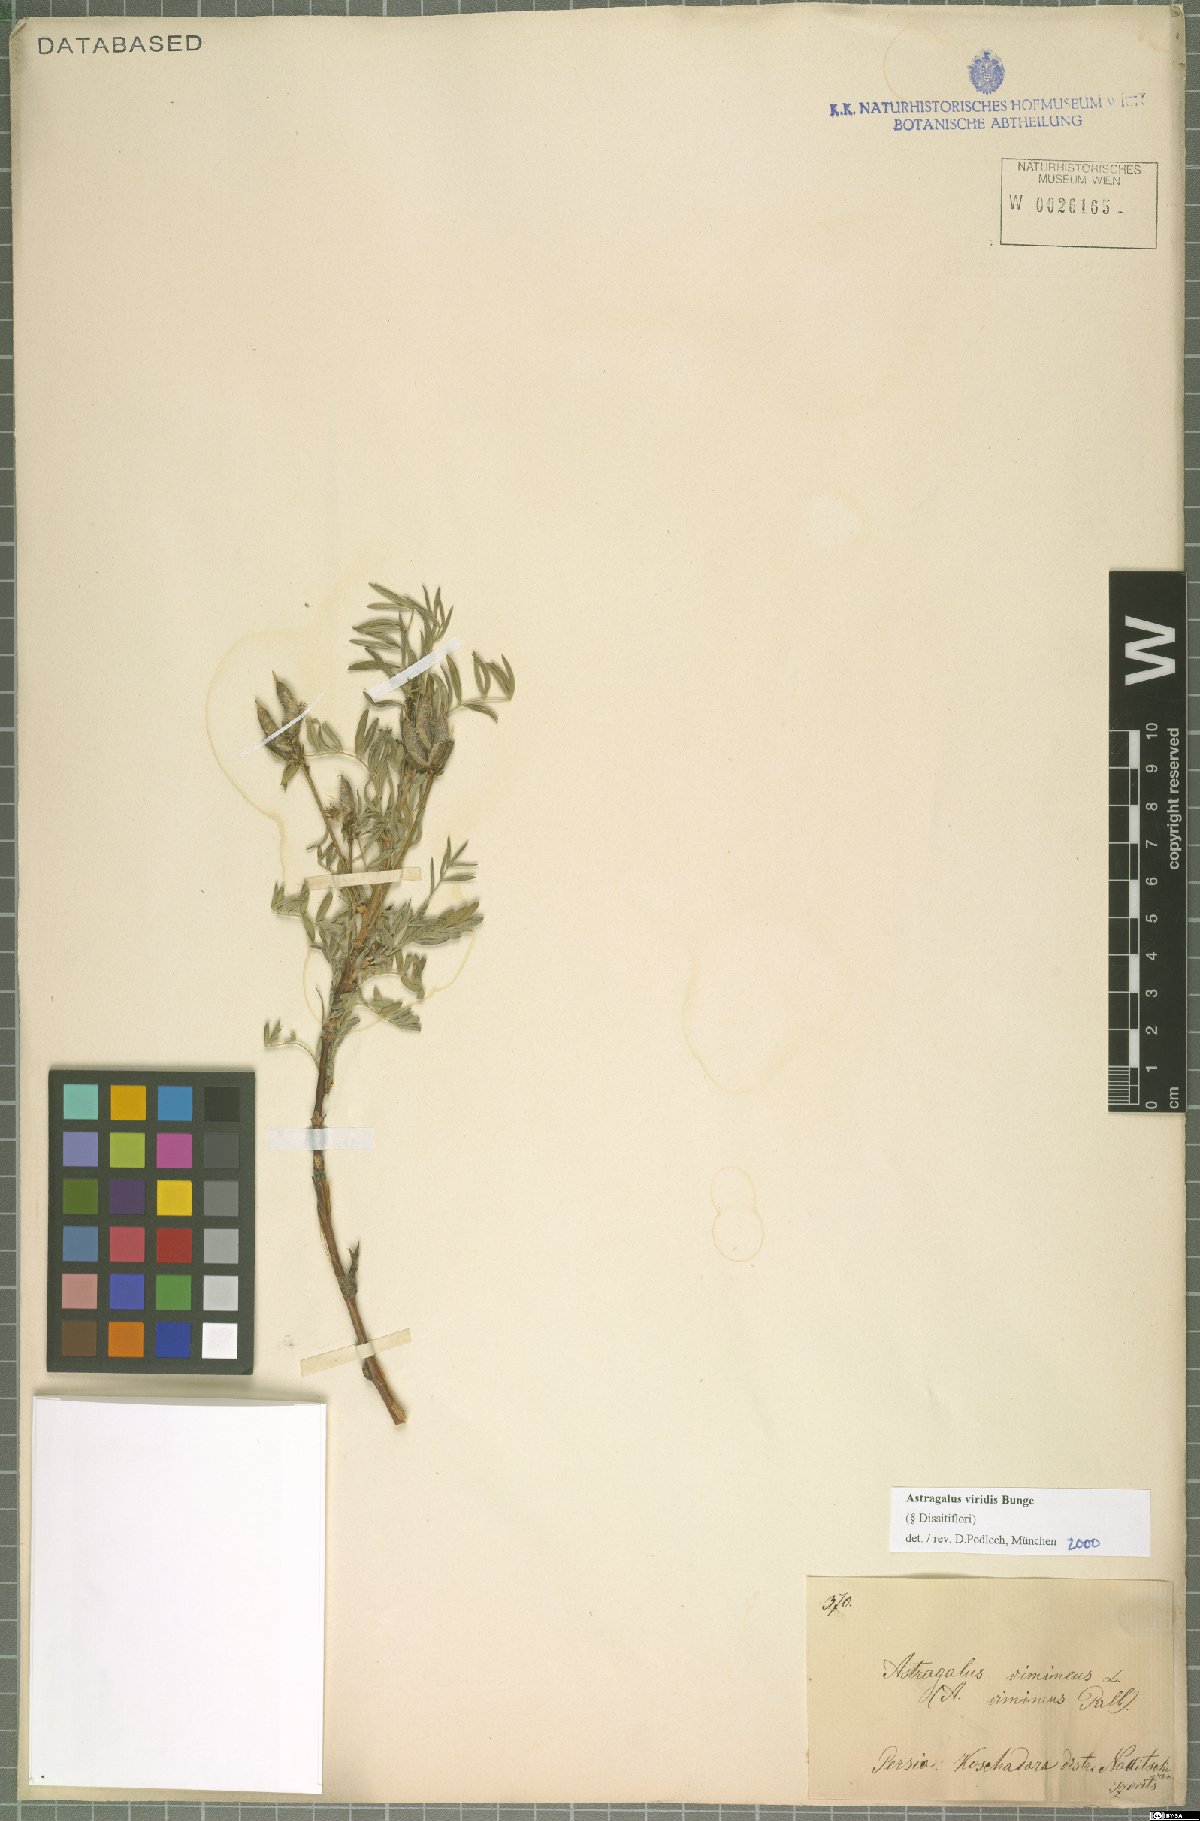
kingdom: Plantae
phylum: Tracheophyta
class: Magnoliopsida
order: Fabales
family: Fabaceae
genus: Astragalus
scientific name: Astragalus viridis
